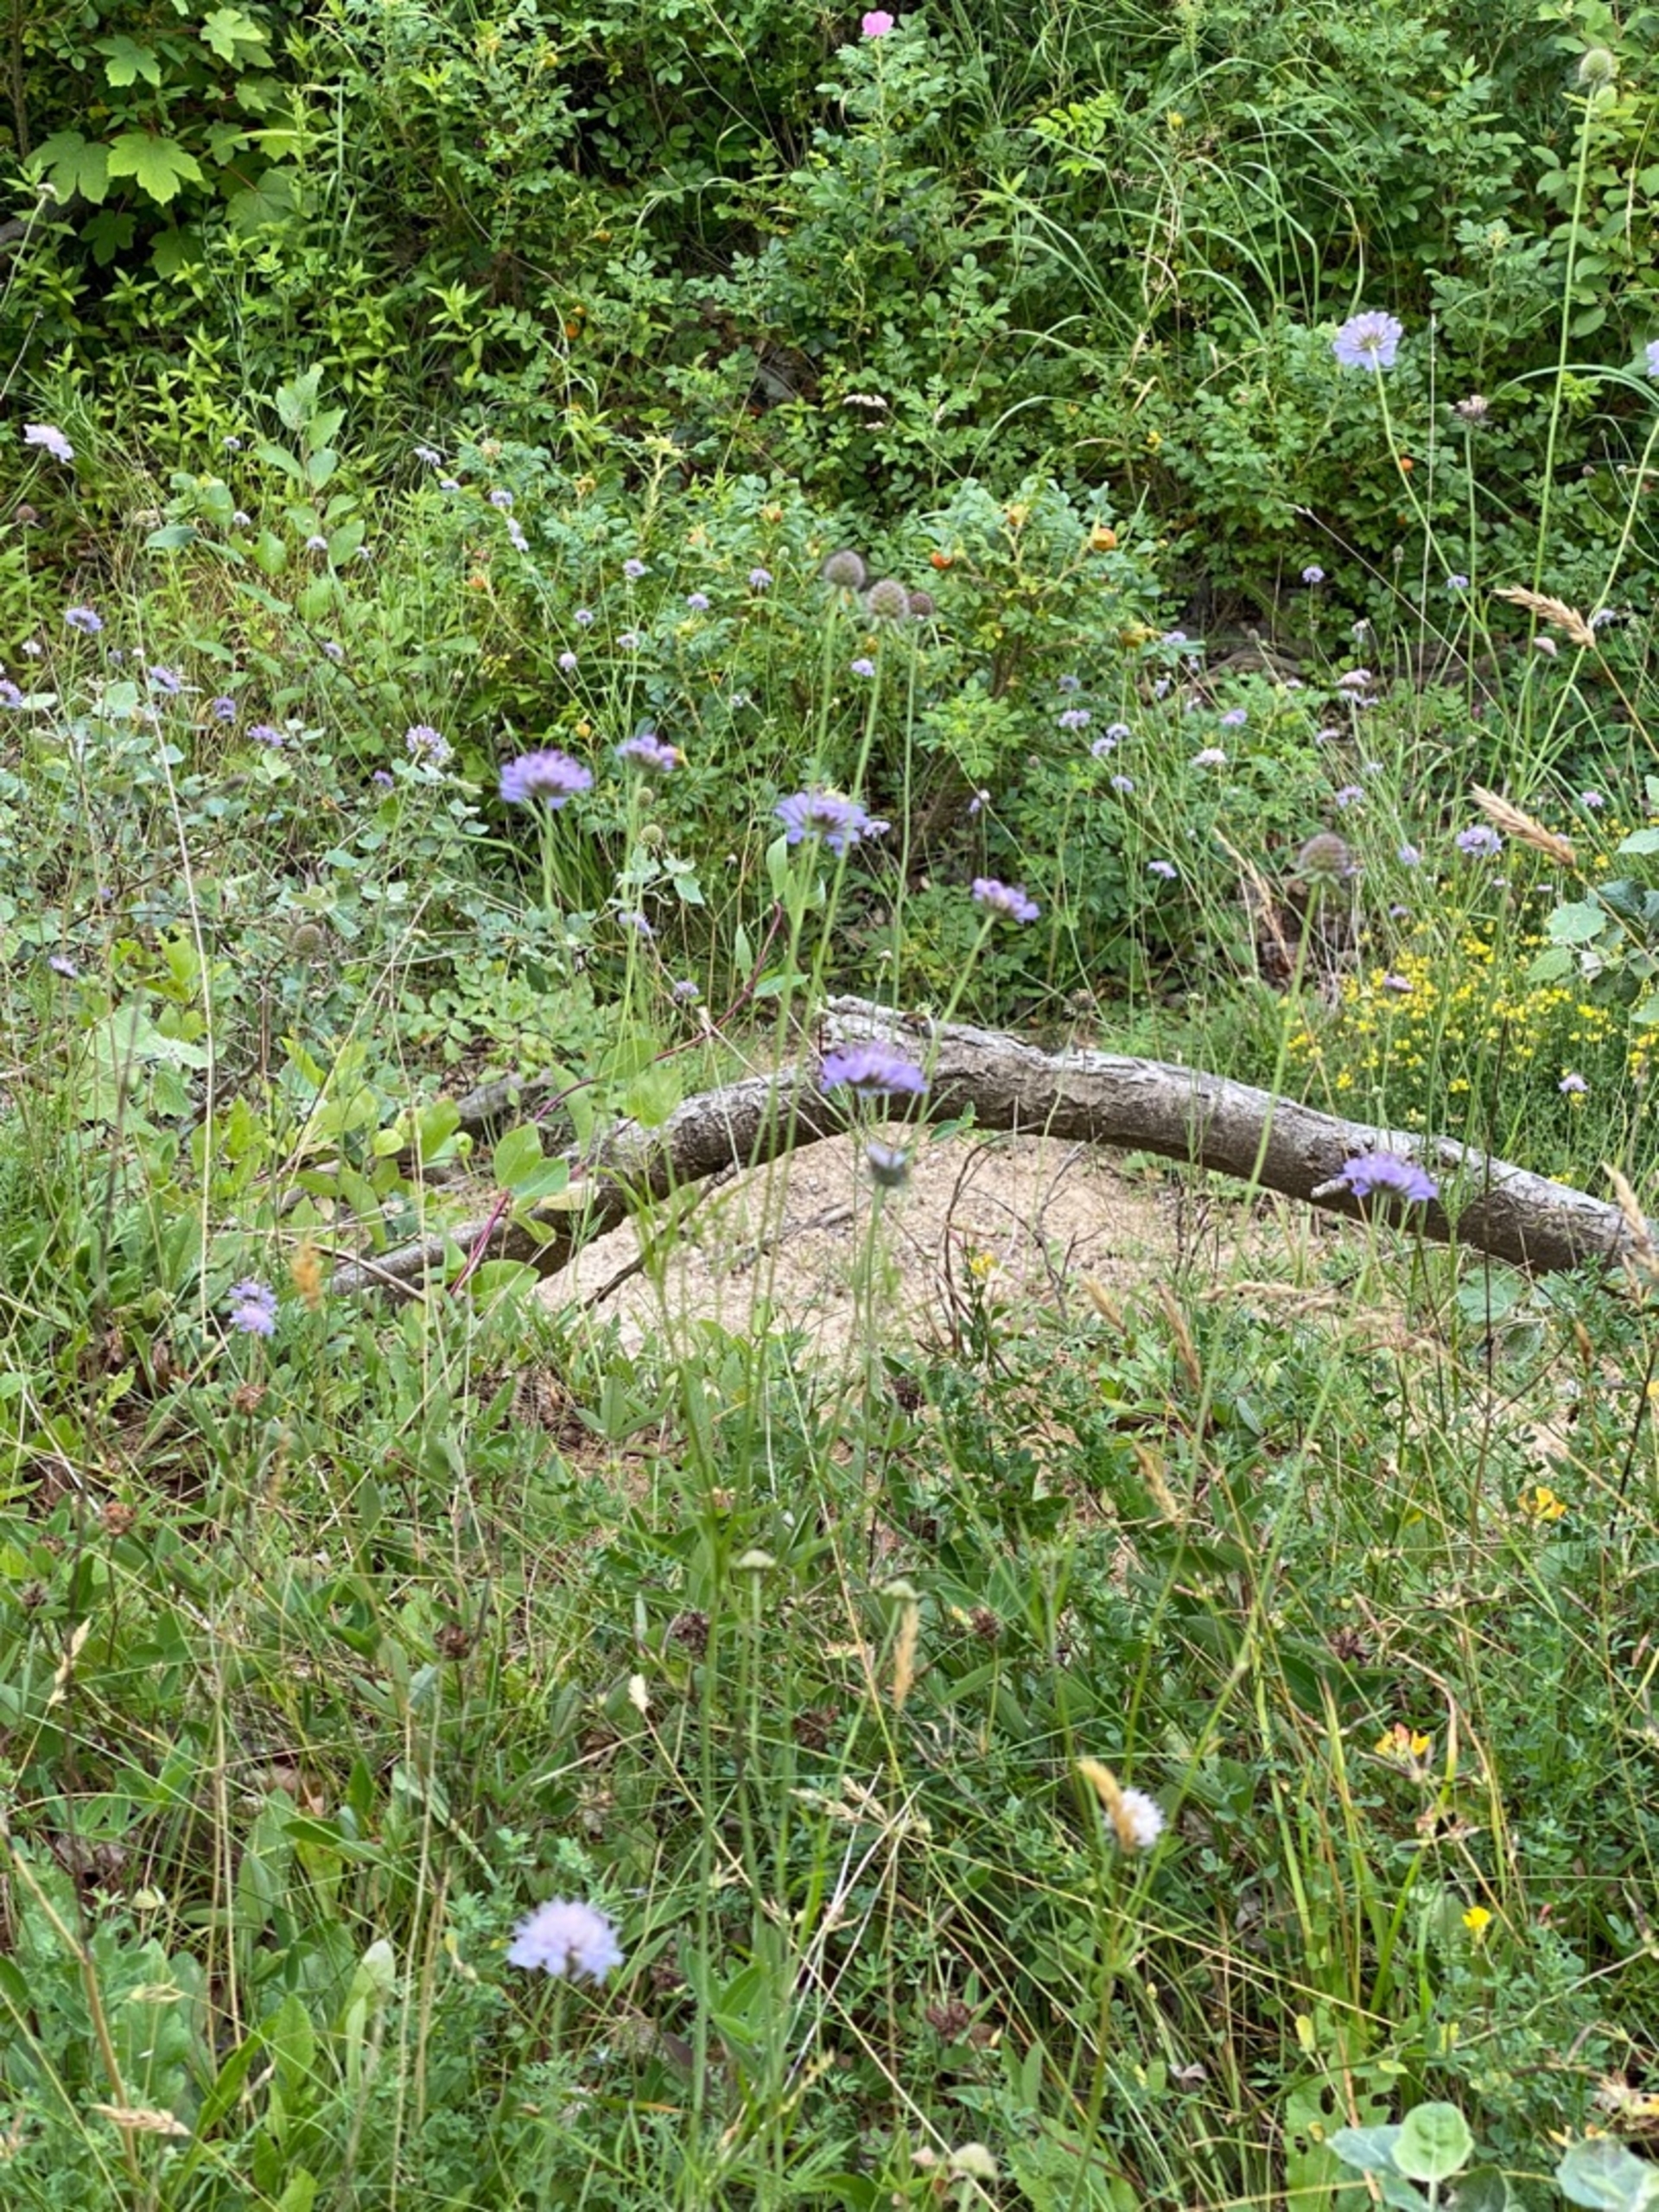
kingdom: Plantae
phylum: Tracheophyta
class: Magnoliopsida
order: Dipsacales
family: Caprifoliaceae
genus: Scabiosa
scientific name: Scabiosa columbaria
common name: Due-skabiose
